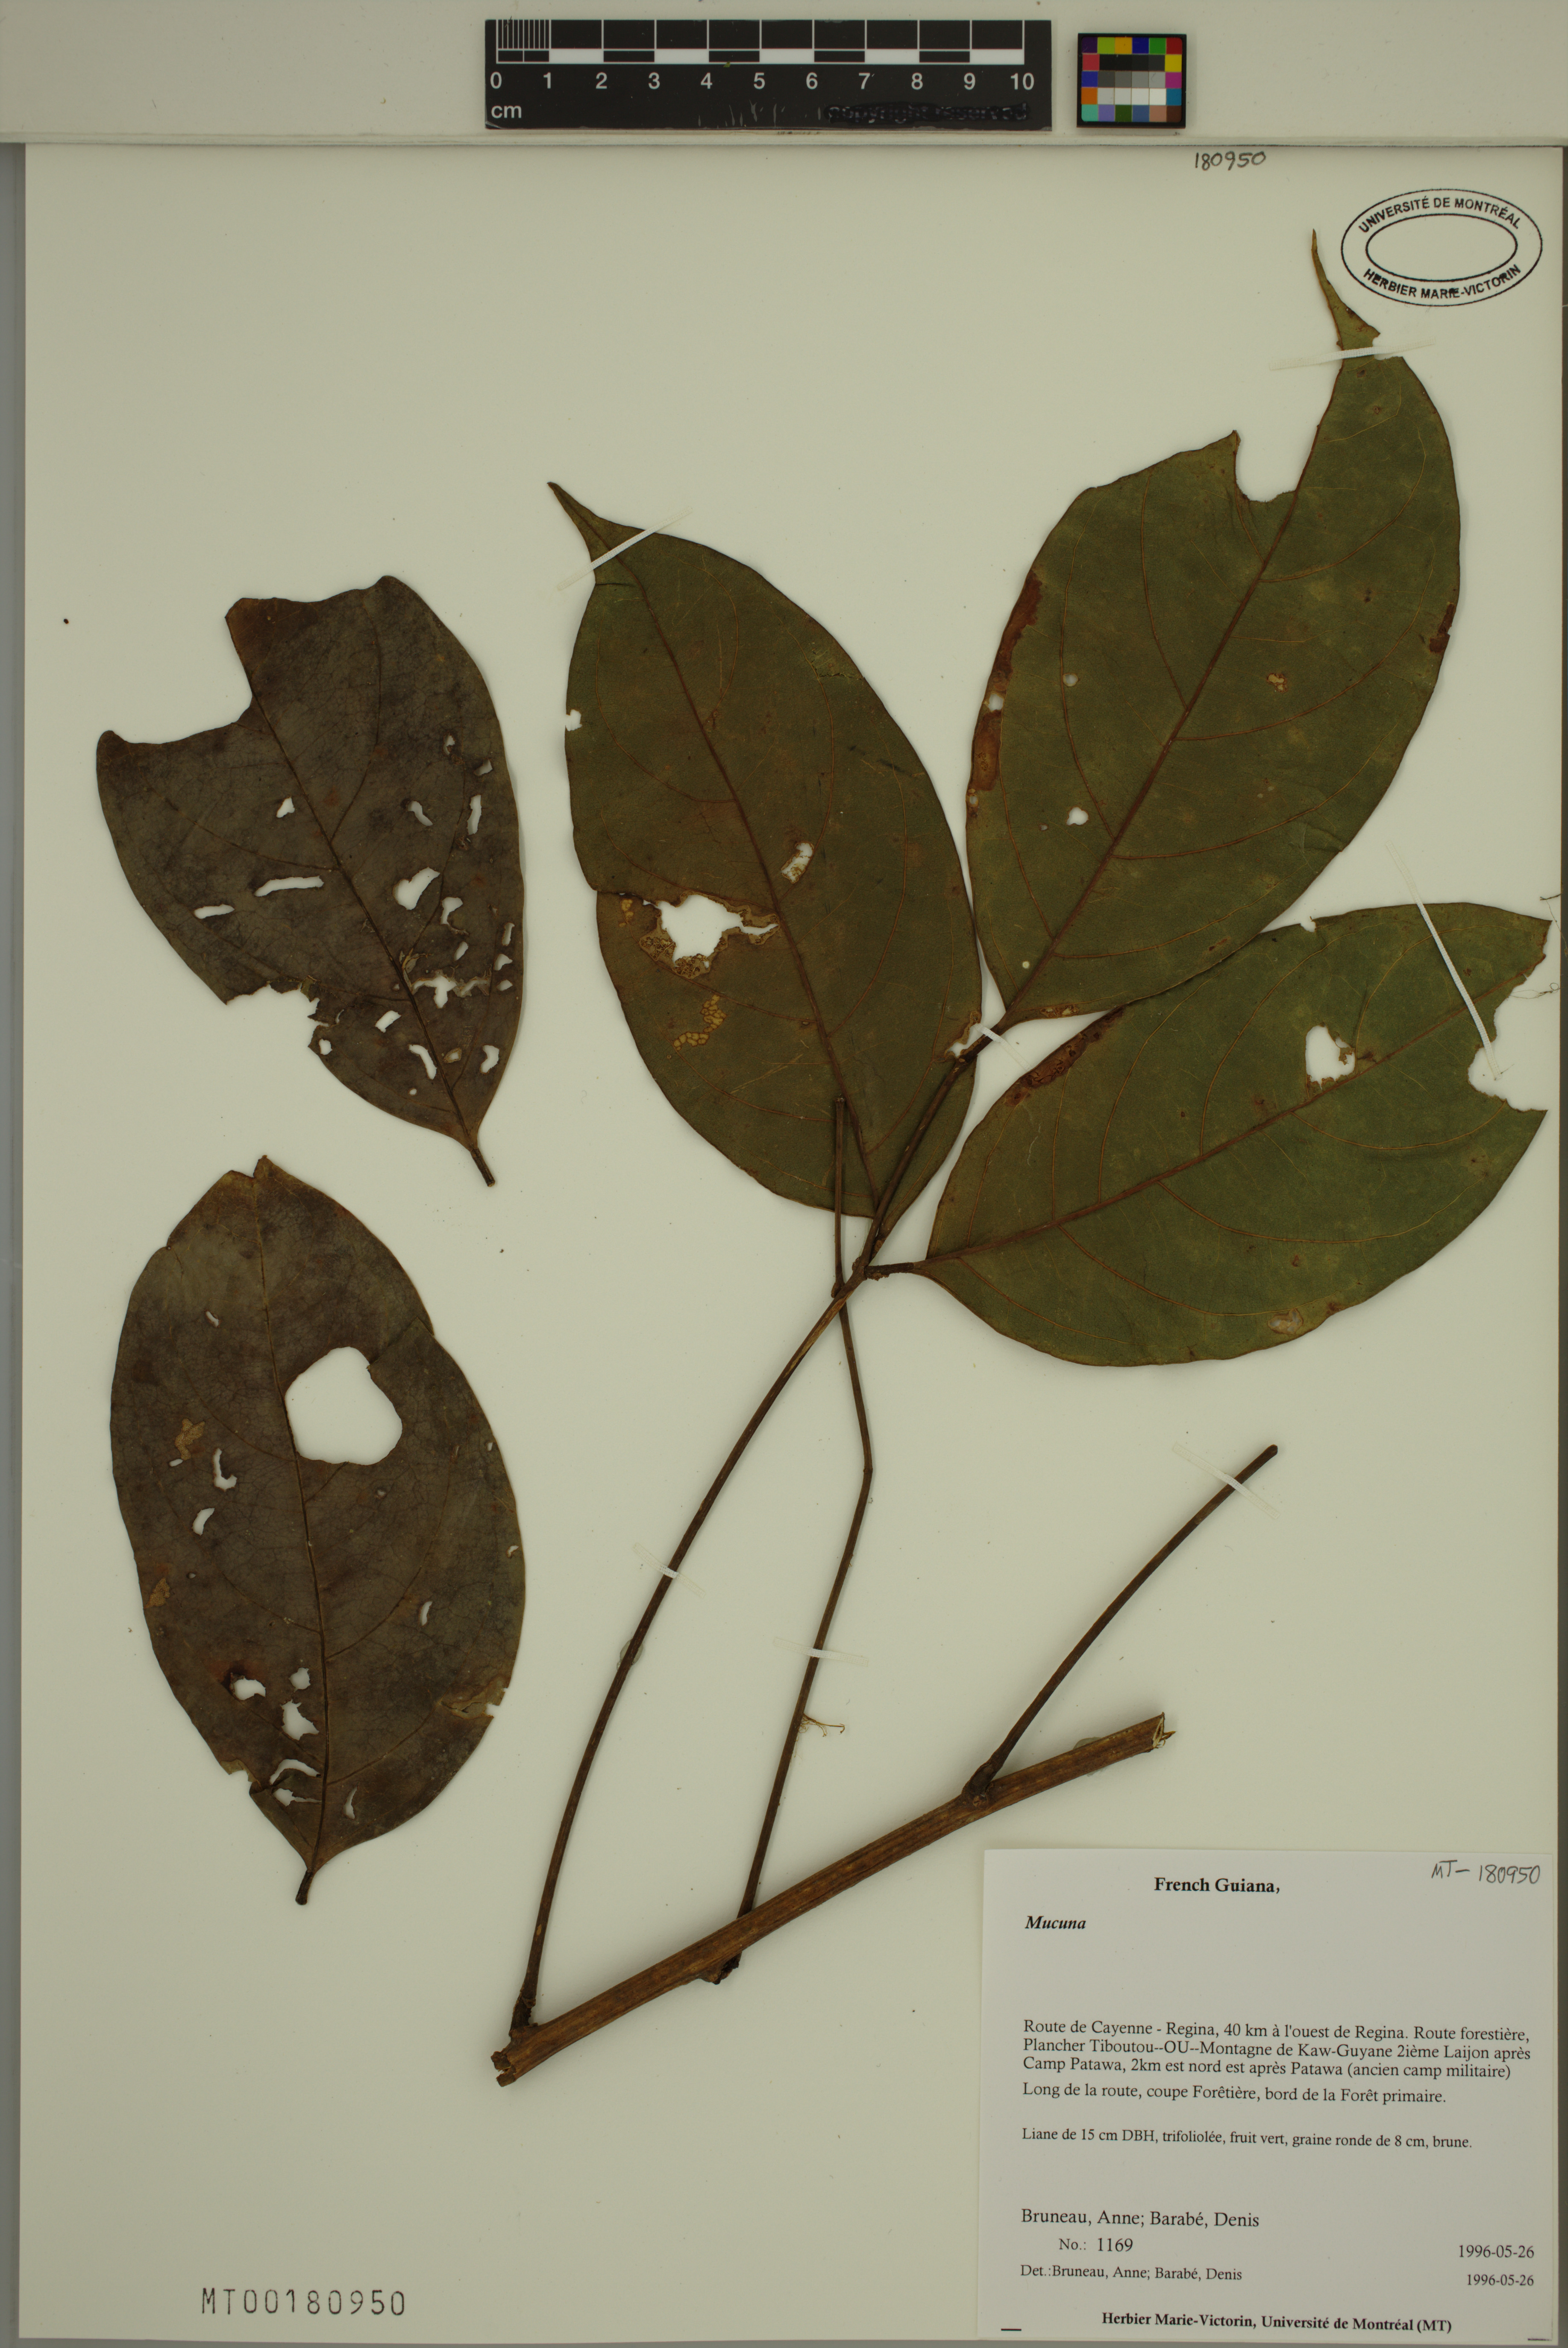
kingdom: Plantae
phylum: Tracheophyta
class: Magnoliopsida
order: Fabales
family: Fabaceae
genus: Mucuna
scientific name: Mucuna
